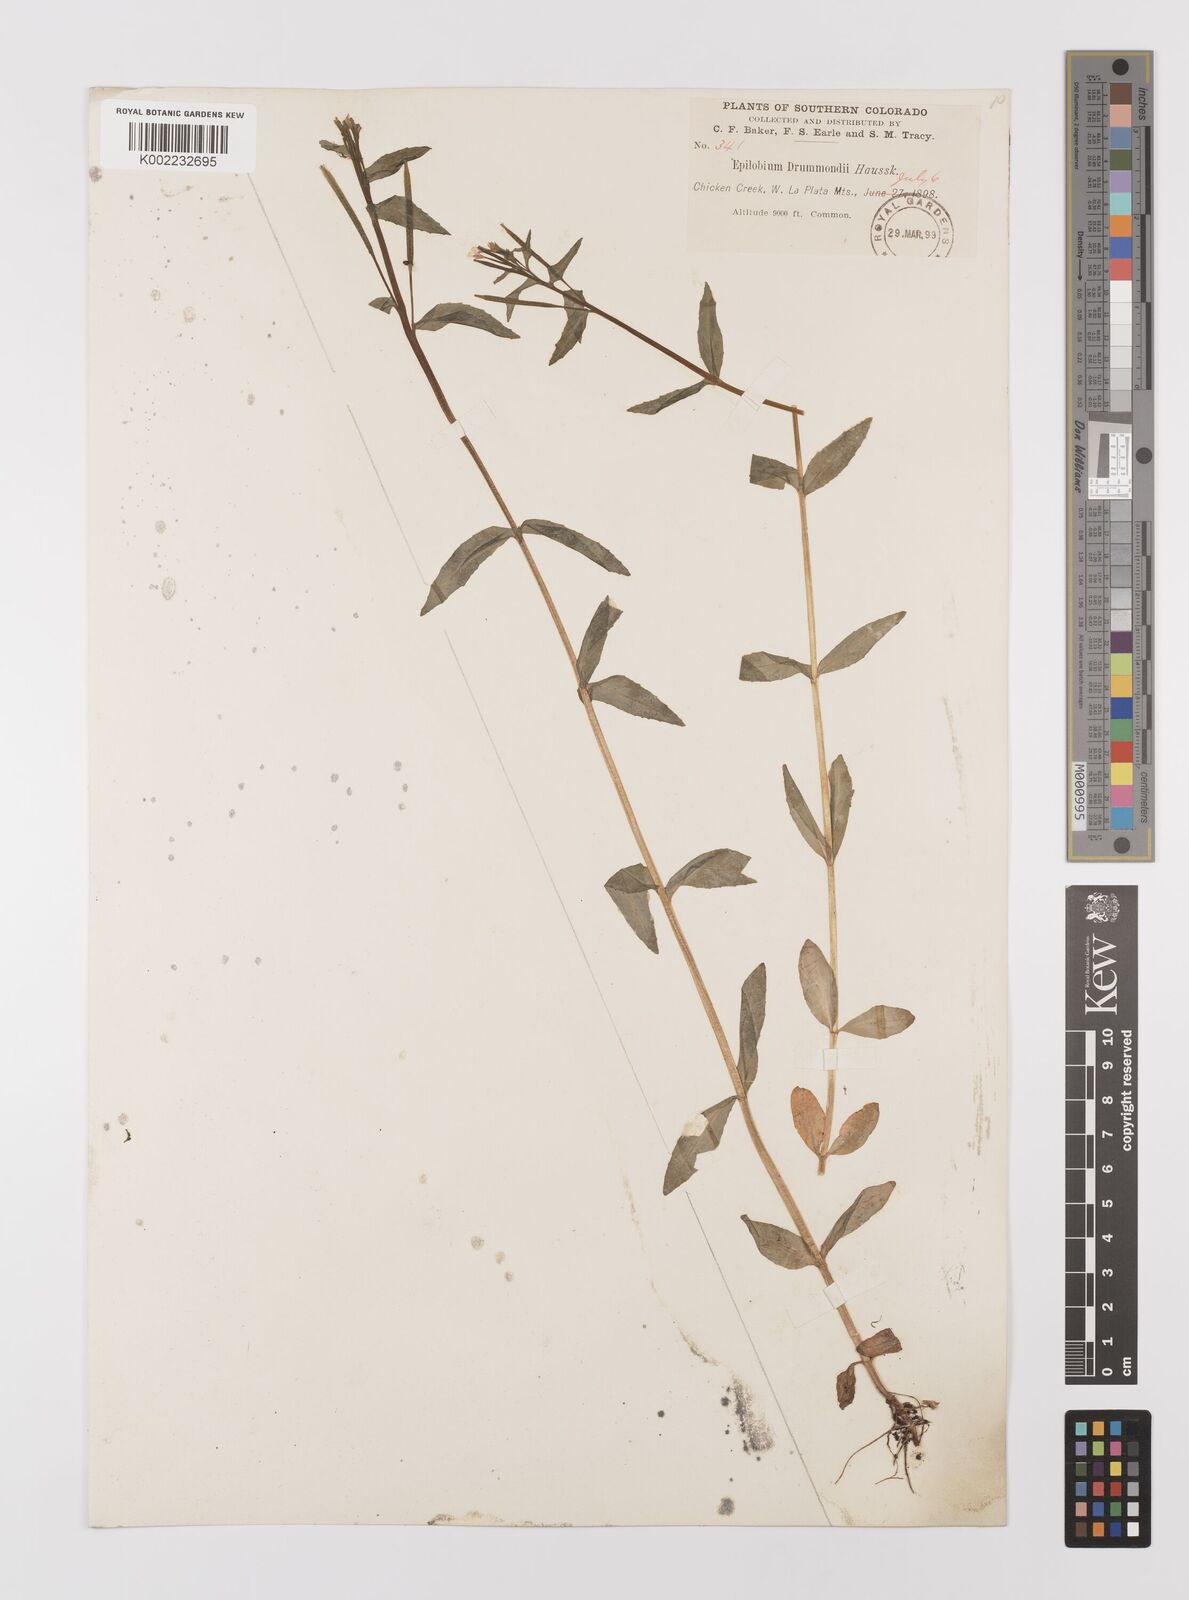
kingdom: Plantae
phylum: Tracheophyta
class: Magnoliopsida
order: Myrtales
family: Onagraceae
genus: Epilobium
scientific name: Epilobium
